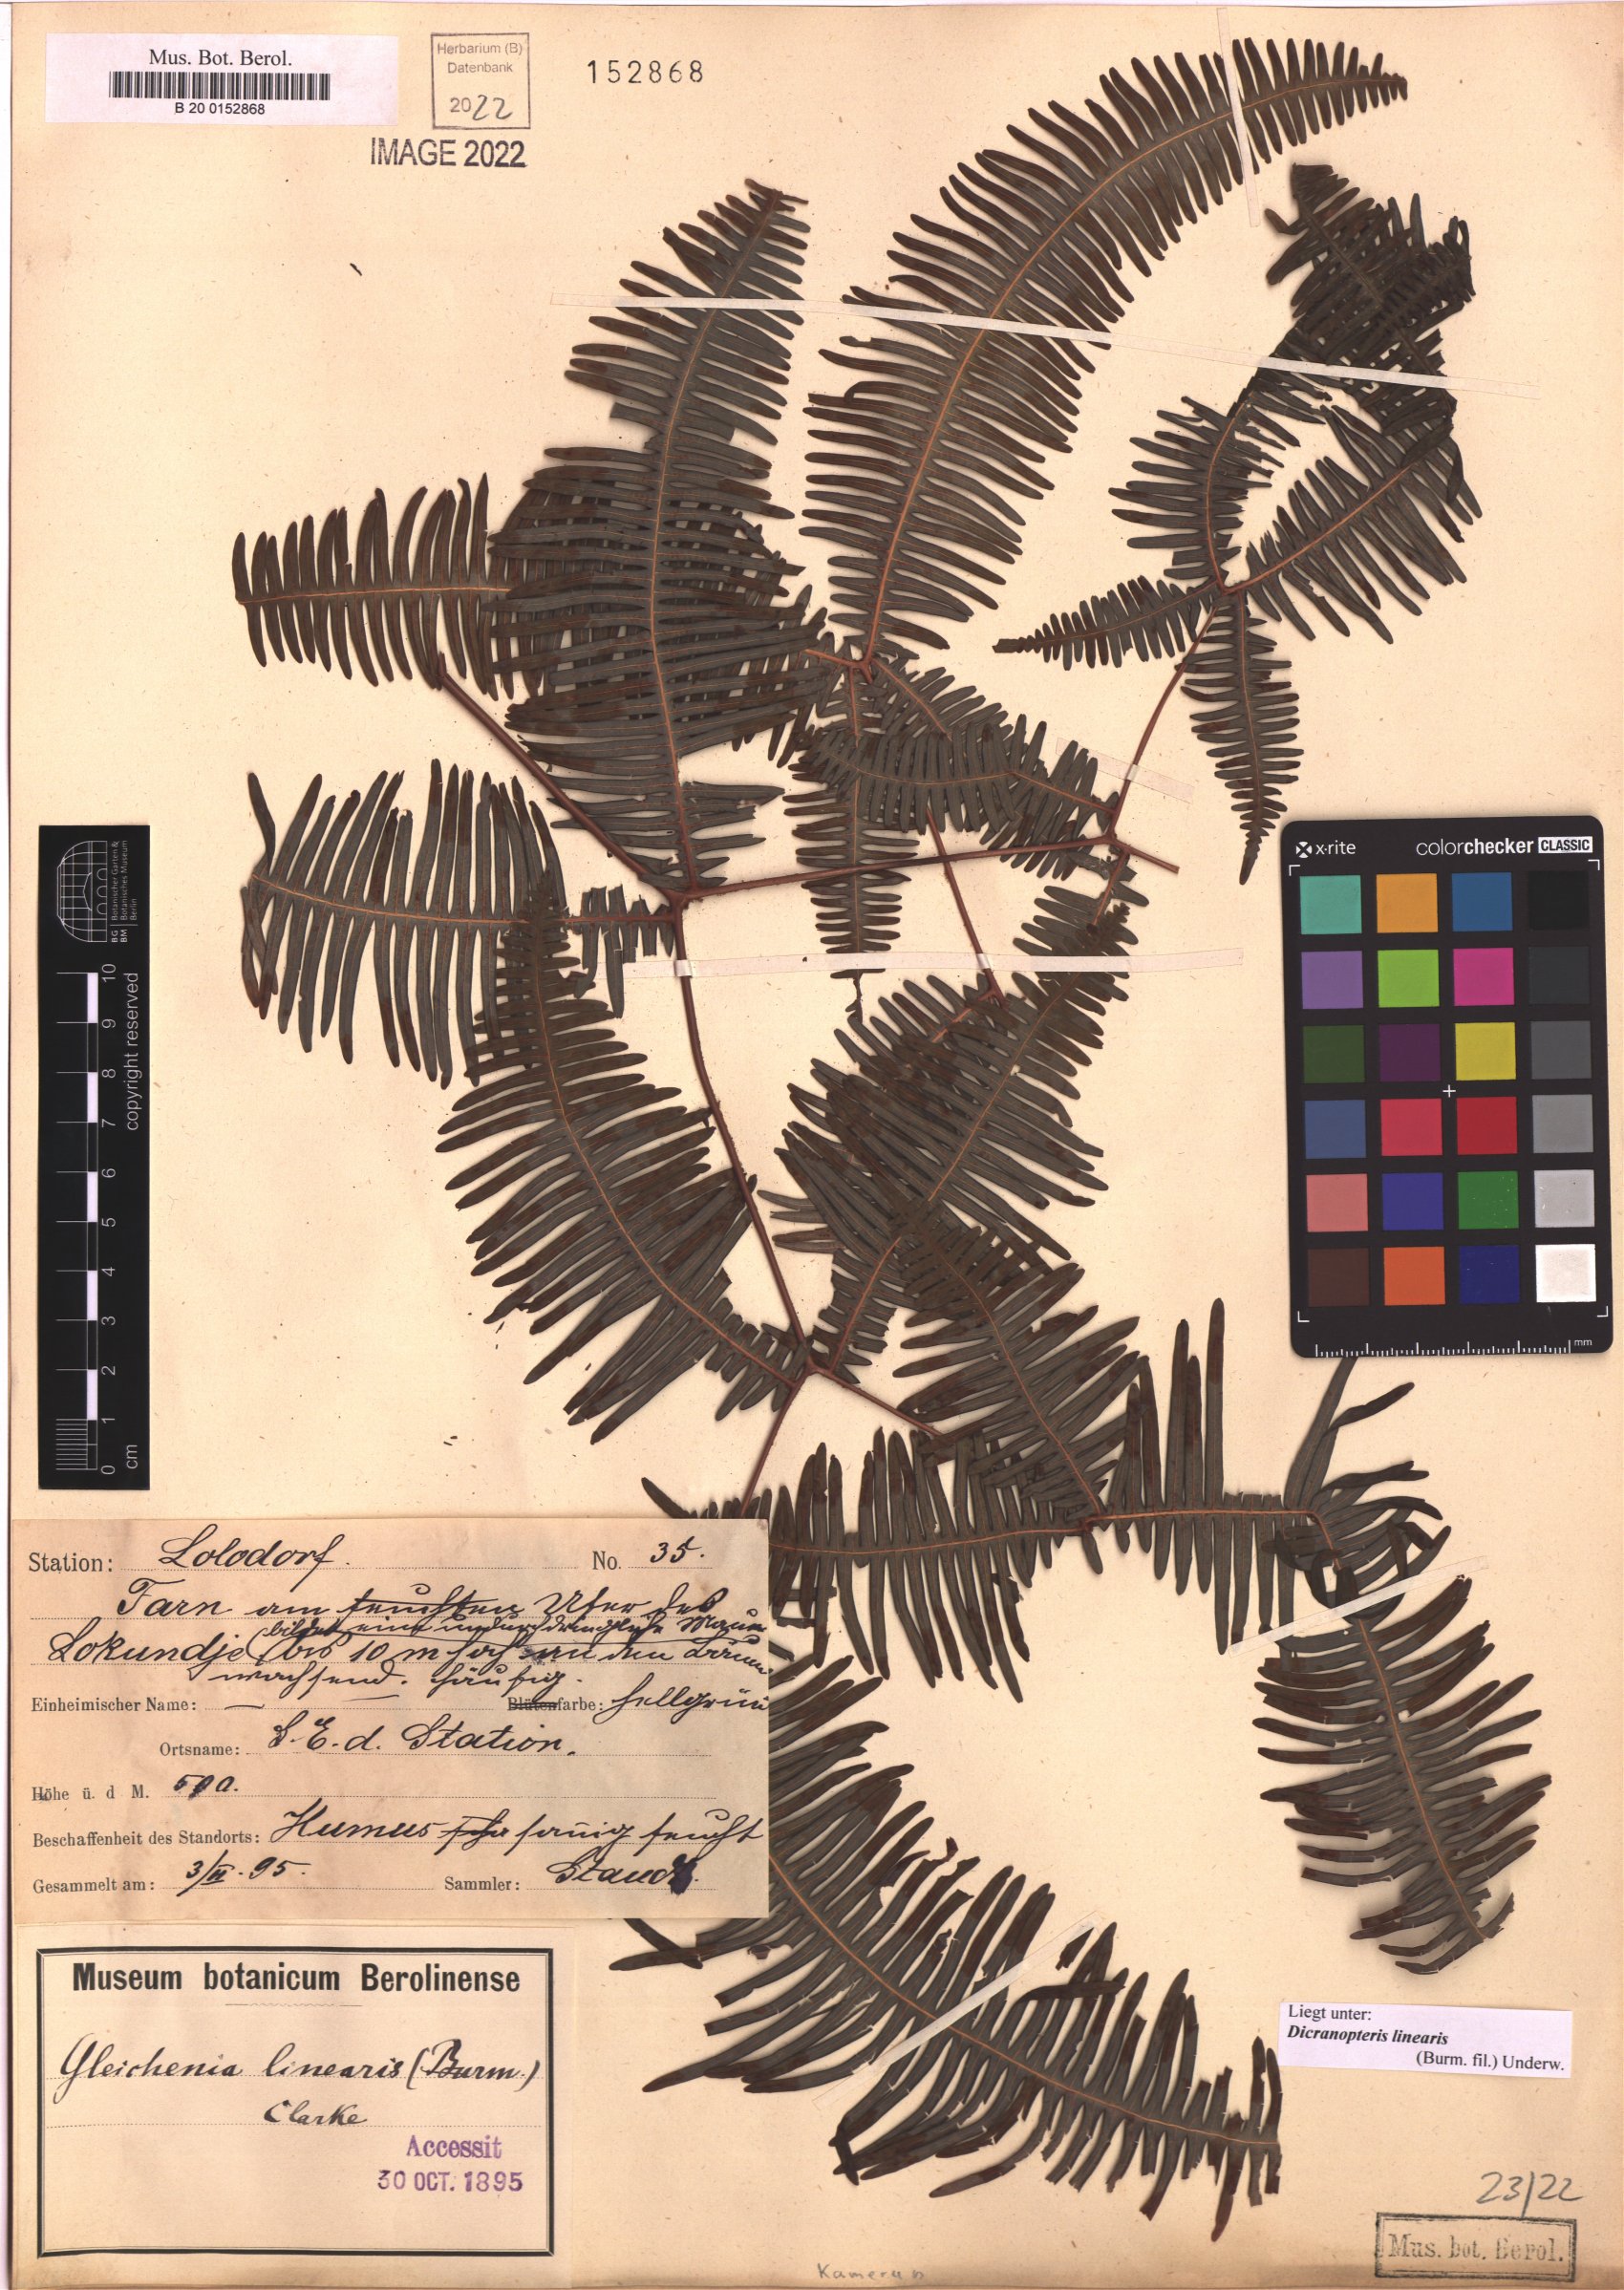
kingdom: Plantae
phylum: Tracheophyta
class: Polypodiopsida
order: Gleicheniales
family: Gleicheniaceae
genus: Dicranopteris
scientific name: Dicranopteris linearis
